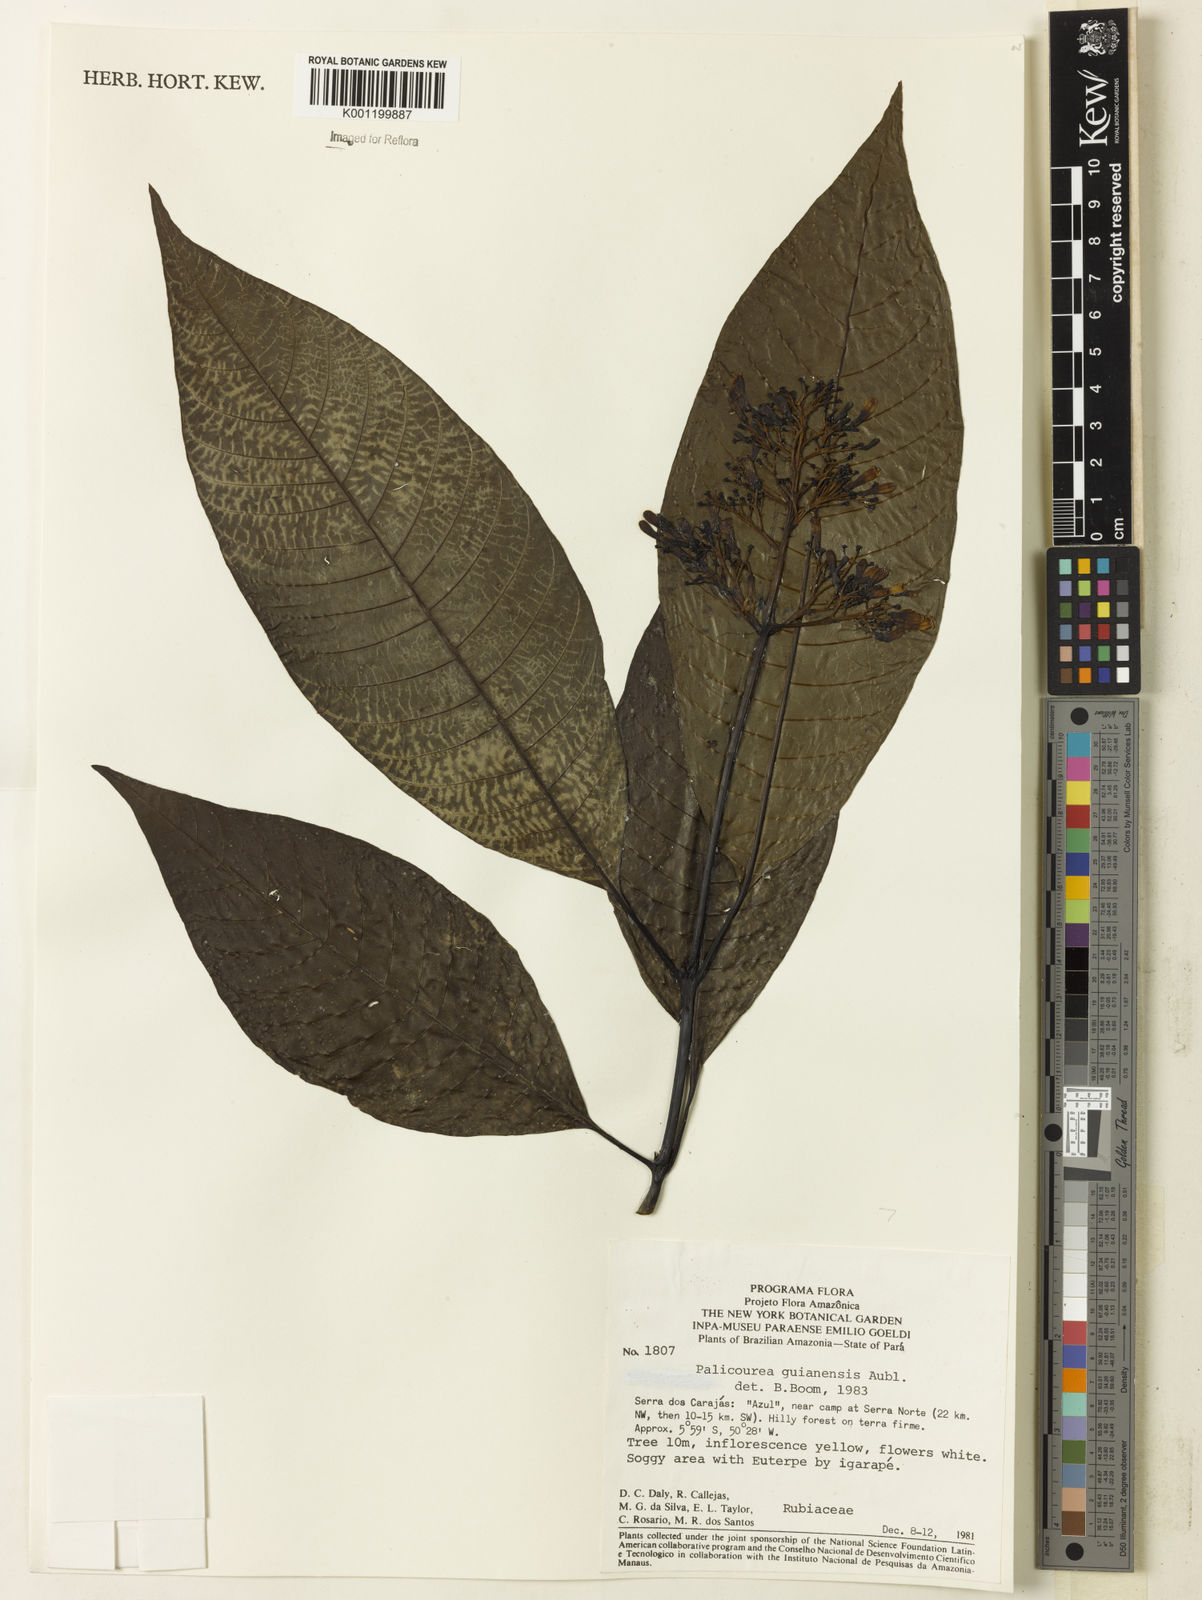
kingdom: Plantae
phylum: Tracheophyta
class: Magnoliopsida
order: Gentianales
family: Rubiaceae
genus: Palicourea
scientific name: Palicourea guianensis
